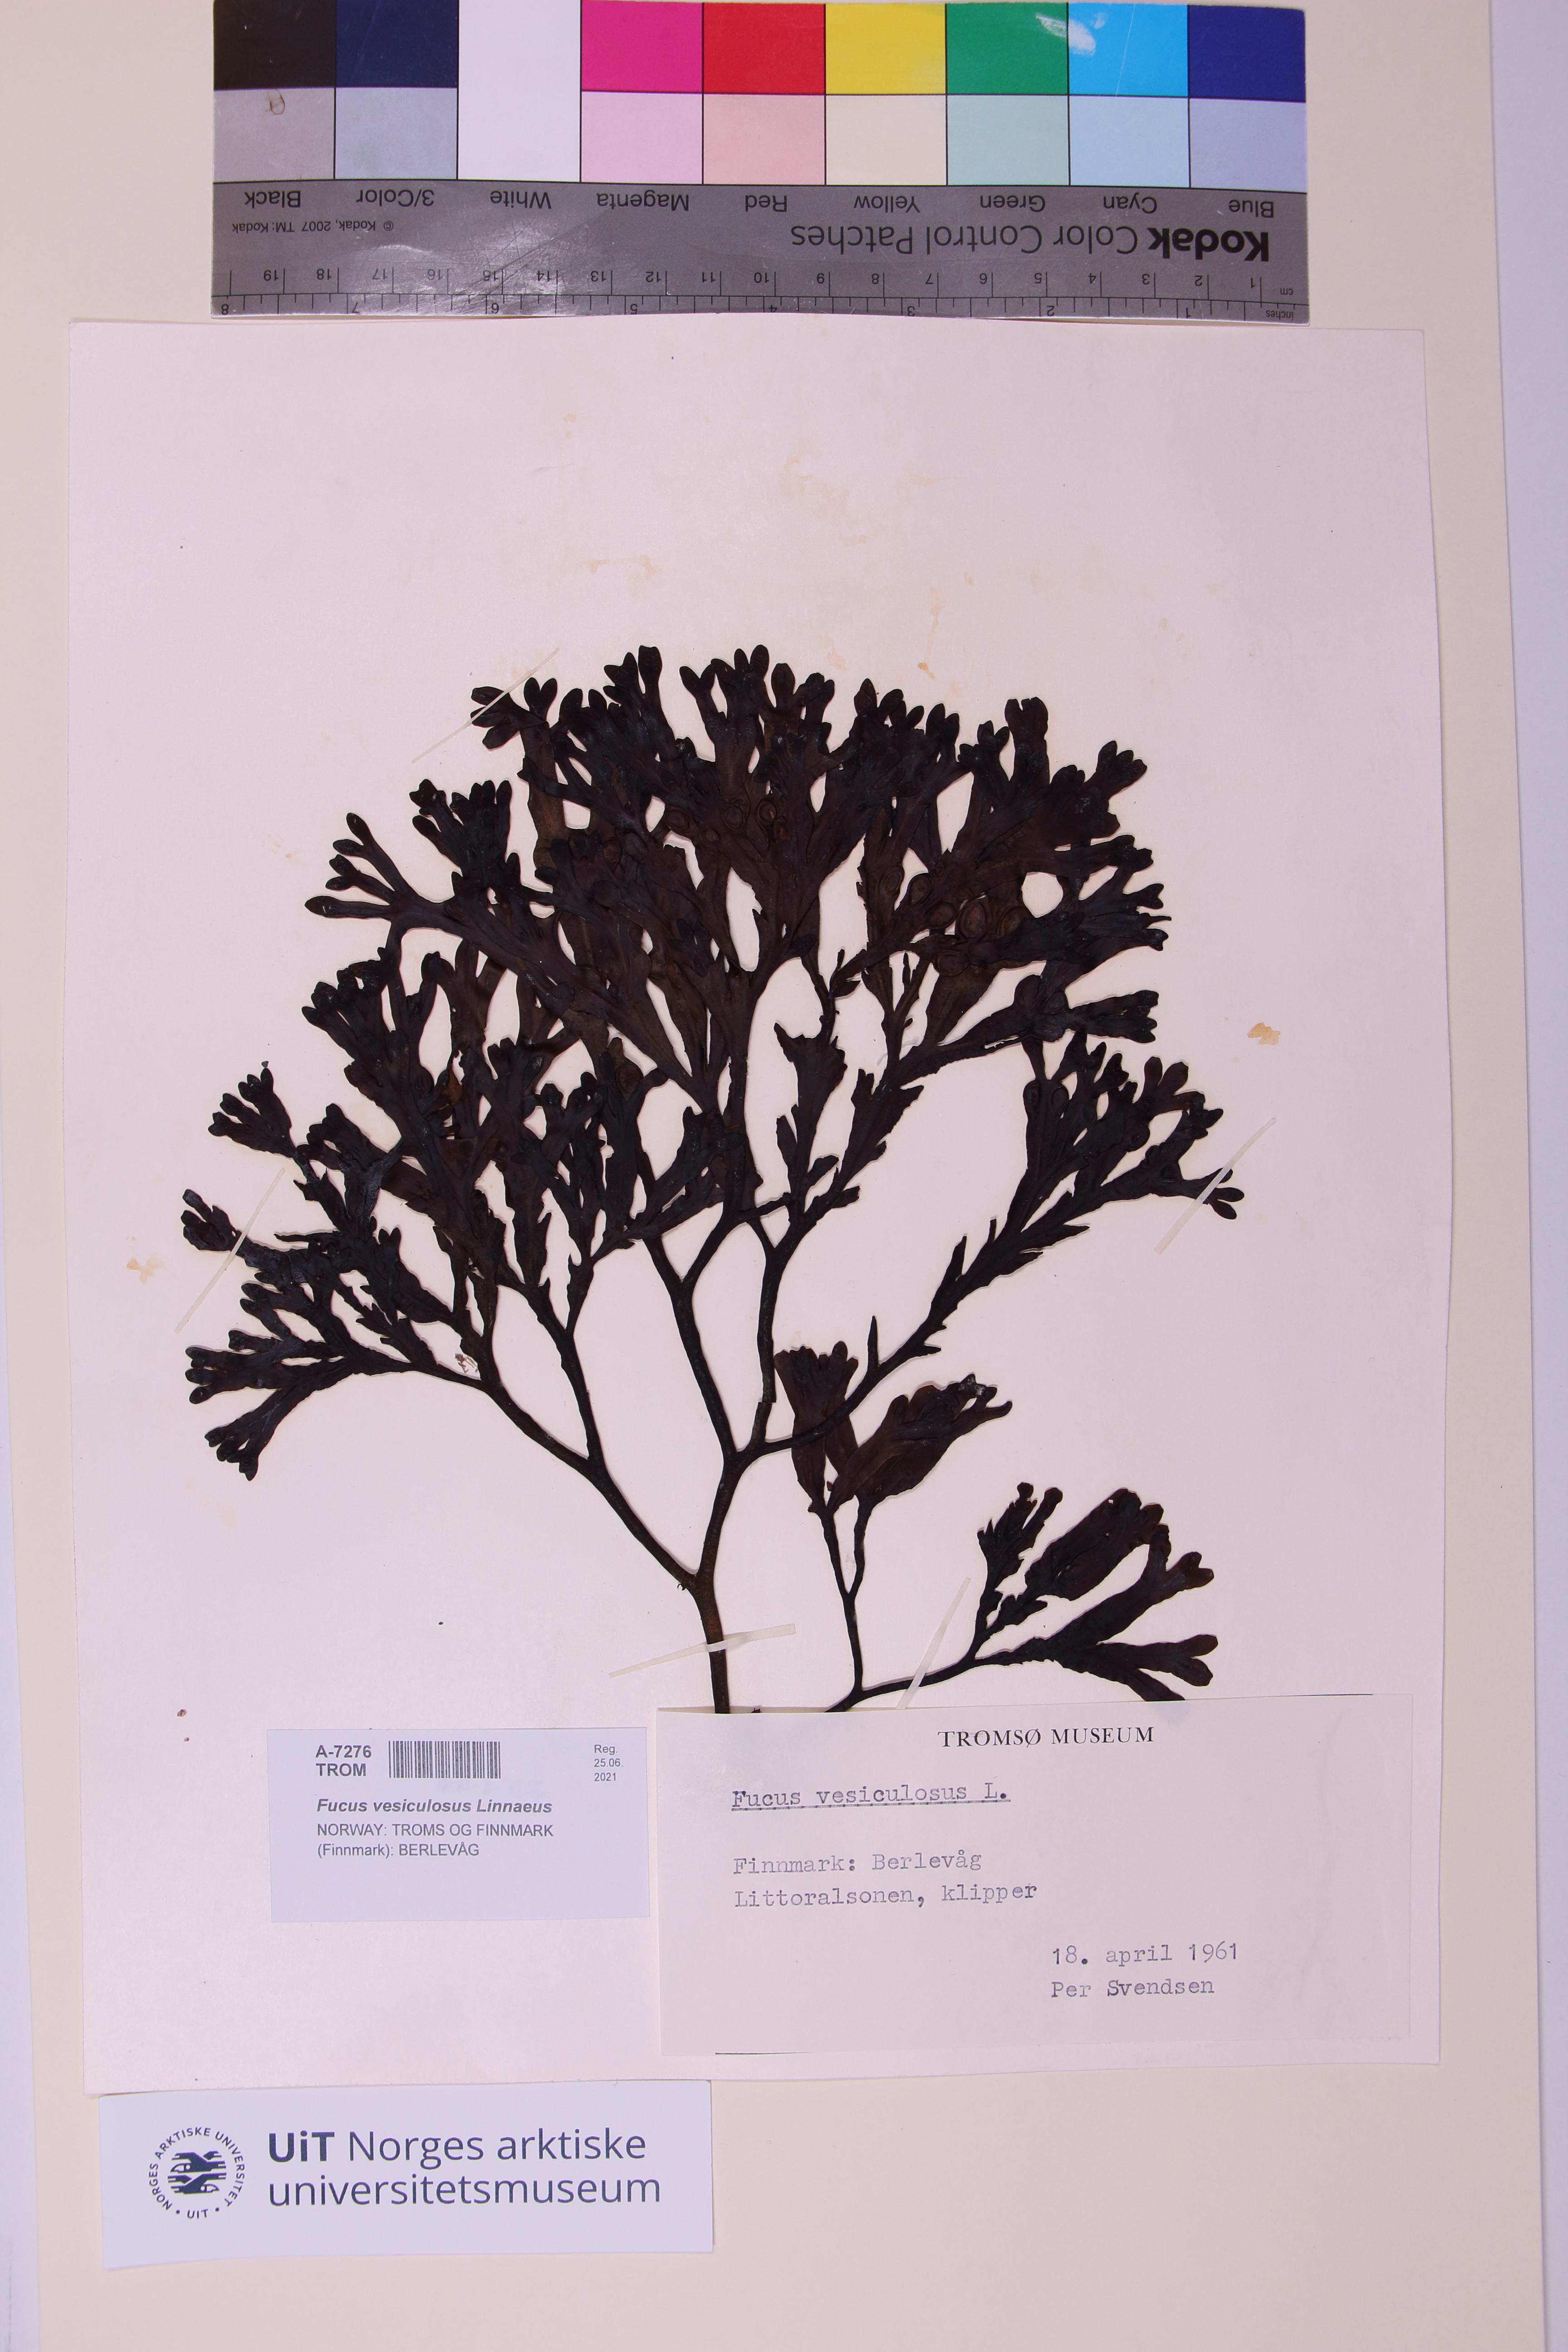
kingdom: Chromista
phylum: Ochrophyta
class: Phaeophyceae
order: Fucales
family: Fucaceae
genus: Fucus
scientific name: Fucus vesiculosus
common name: Bladder wrack
